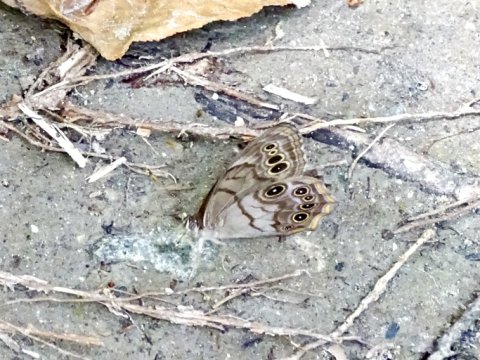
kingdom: Animalia
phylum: Arthropoda
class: Insecta
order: Lepidoptera
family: Nymphalidae
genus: Lethe
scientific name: Lethe anthedon
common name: Northern Pearly-Eye
